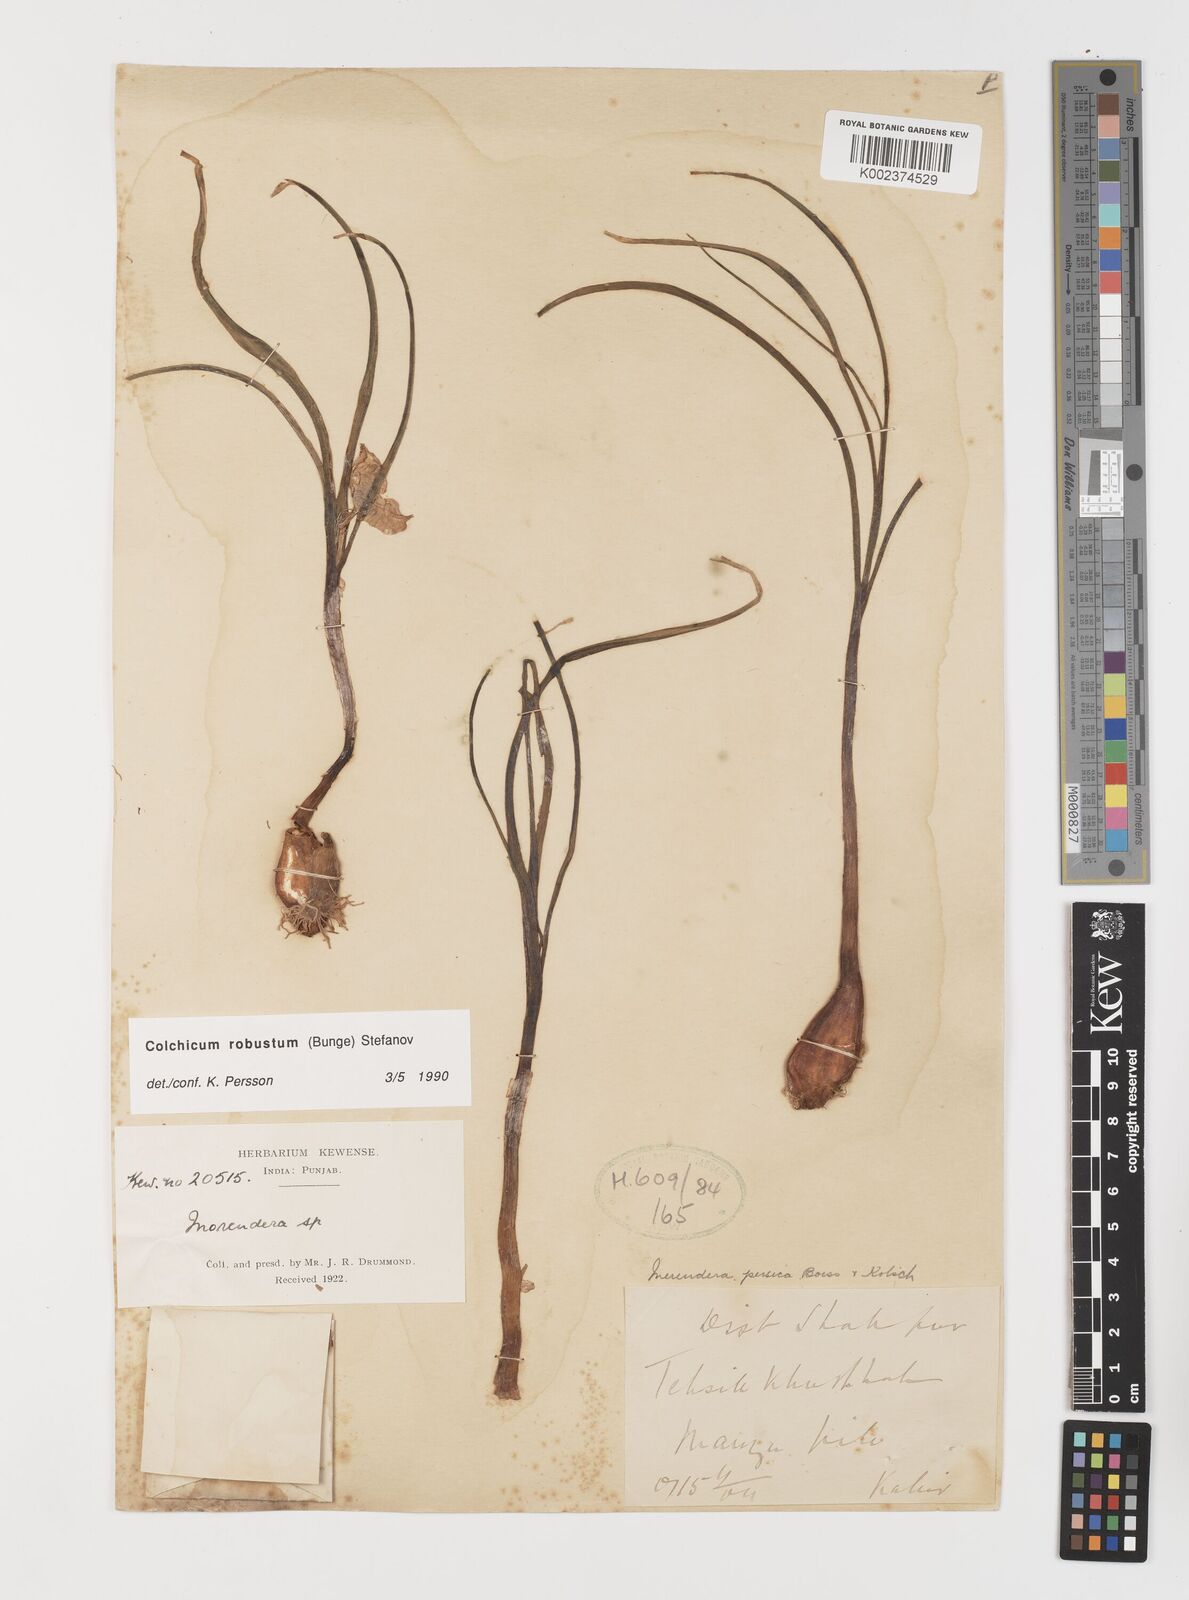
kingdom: Plantae
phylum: Tracheophyta
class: Liliopsida
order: Liliales
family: Colchicaceae
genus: Colchicum
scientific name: Colchicum robustum
